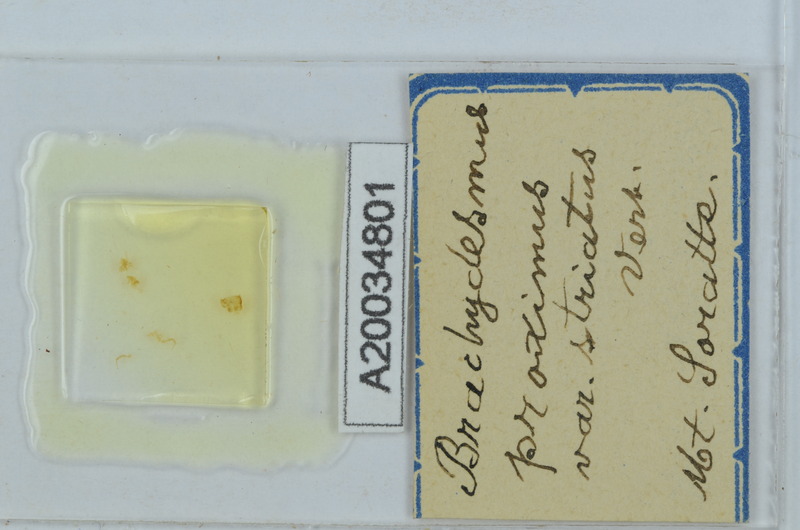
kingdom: Animalia
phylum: Arthropoda
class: Diplopoda
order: Polydesmida
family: Polydesmidae
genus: Brachydesmus
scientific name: Brachydesmus proximus
